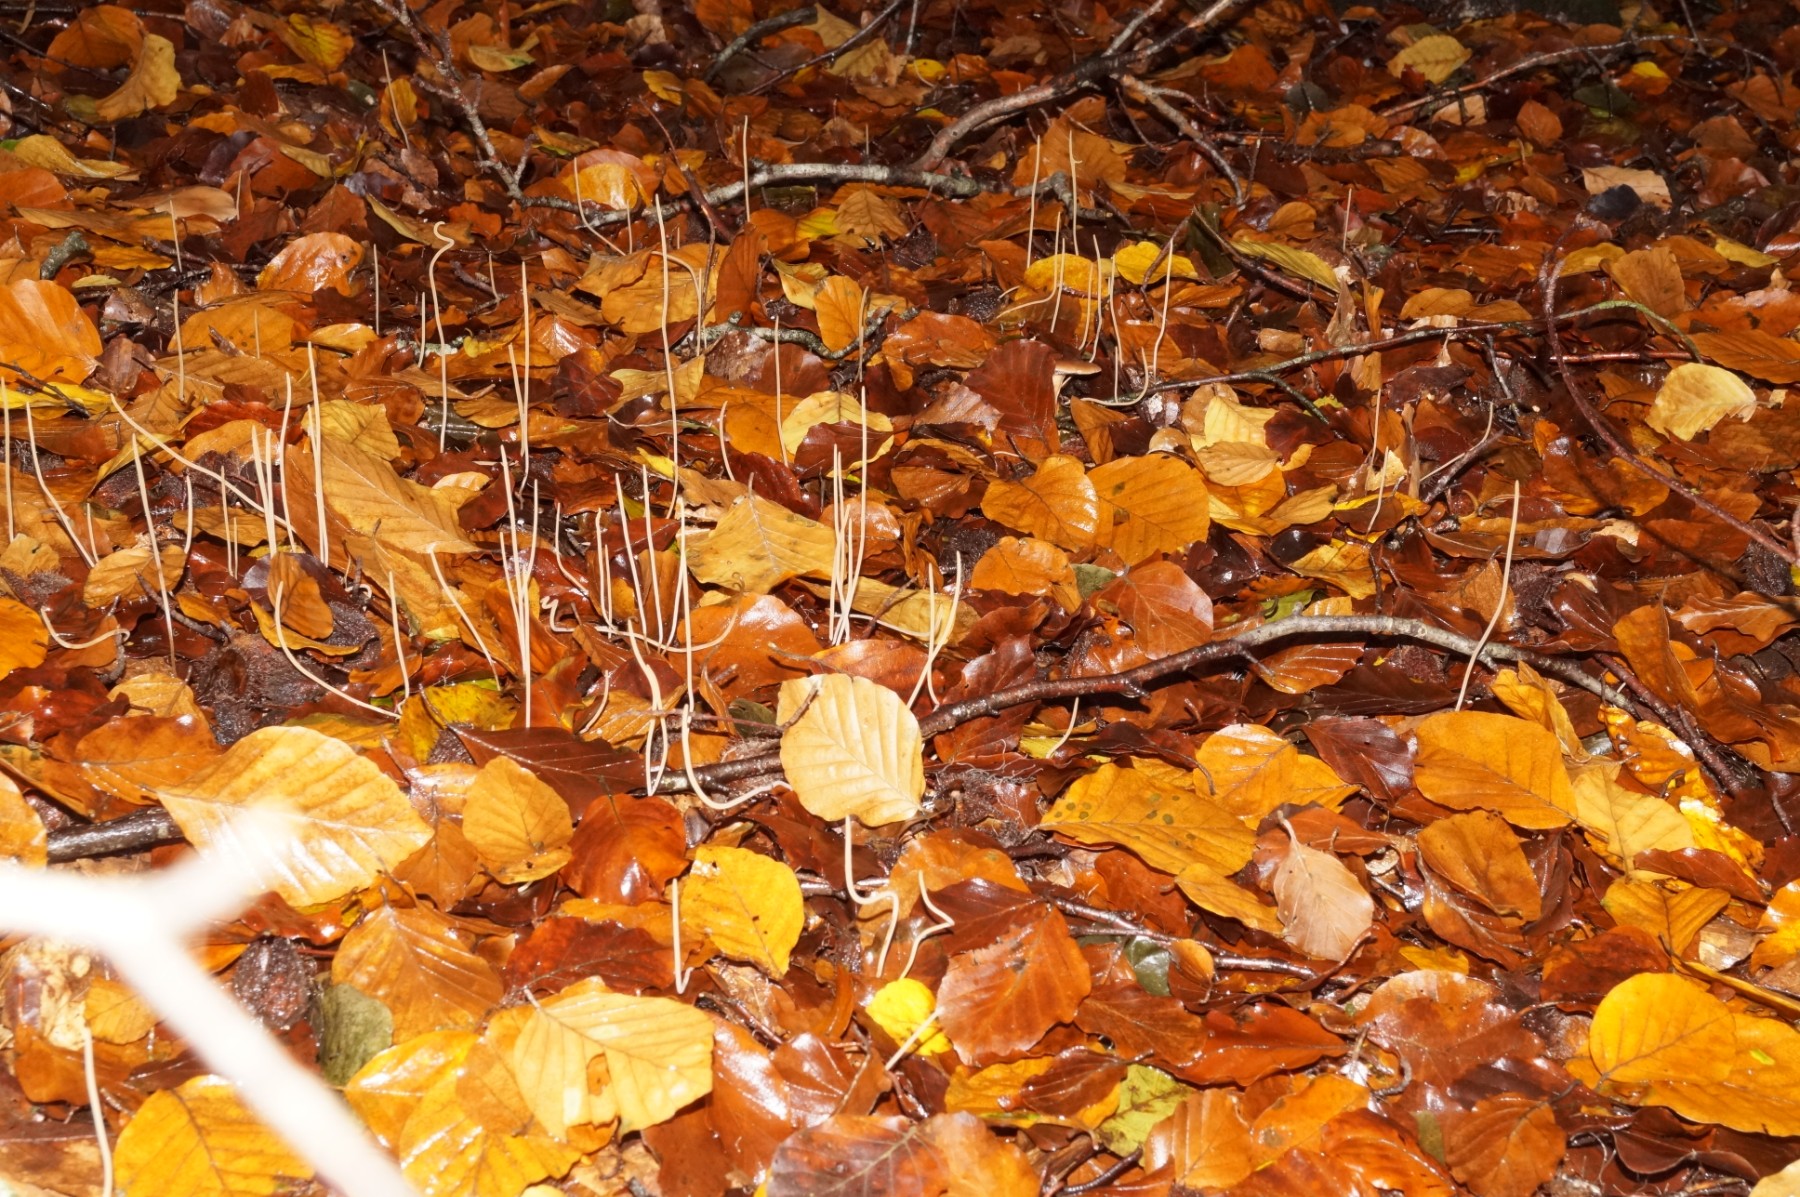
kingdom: Fungi
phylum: Basidiomycota
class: Agaricomycetes
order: Agaricales
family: Typhulaceae
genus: Typhula
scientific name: Typhula juncea
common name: trådagtig rørkølle
